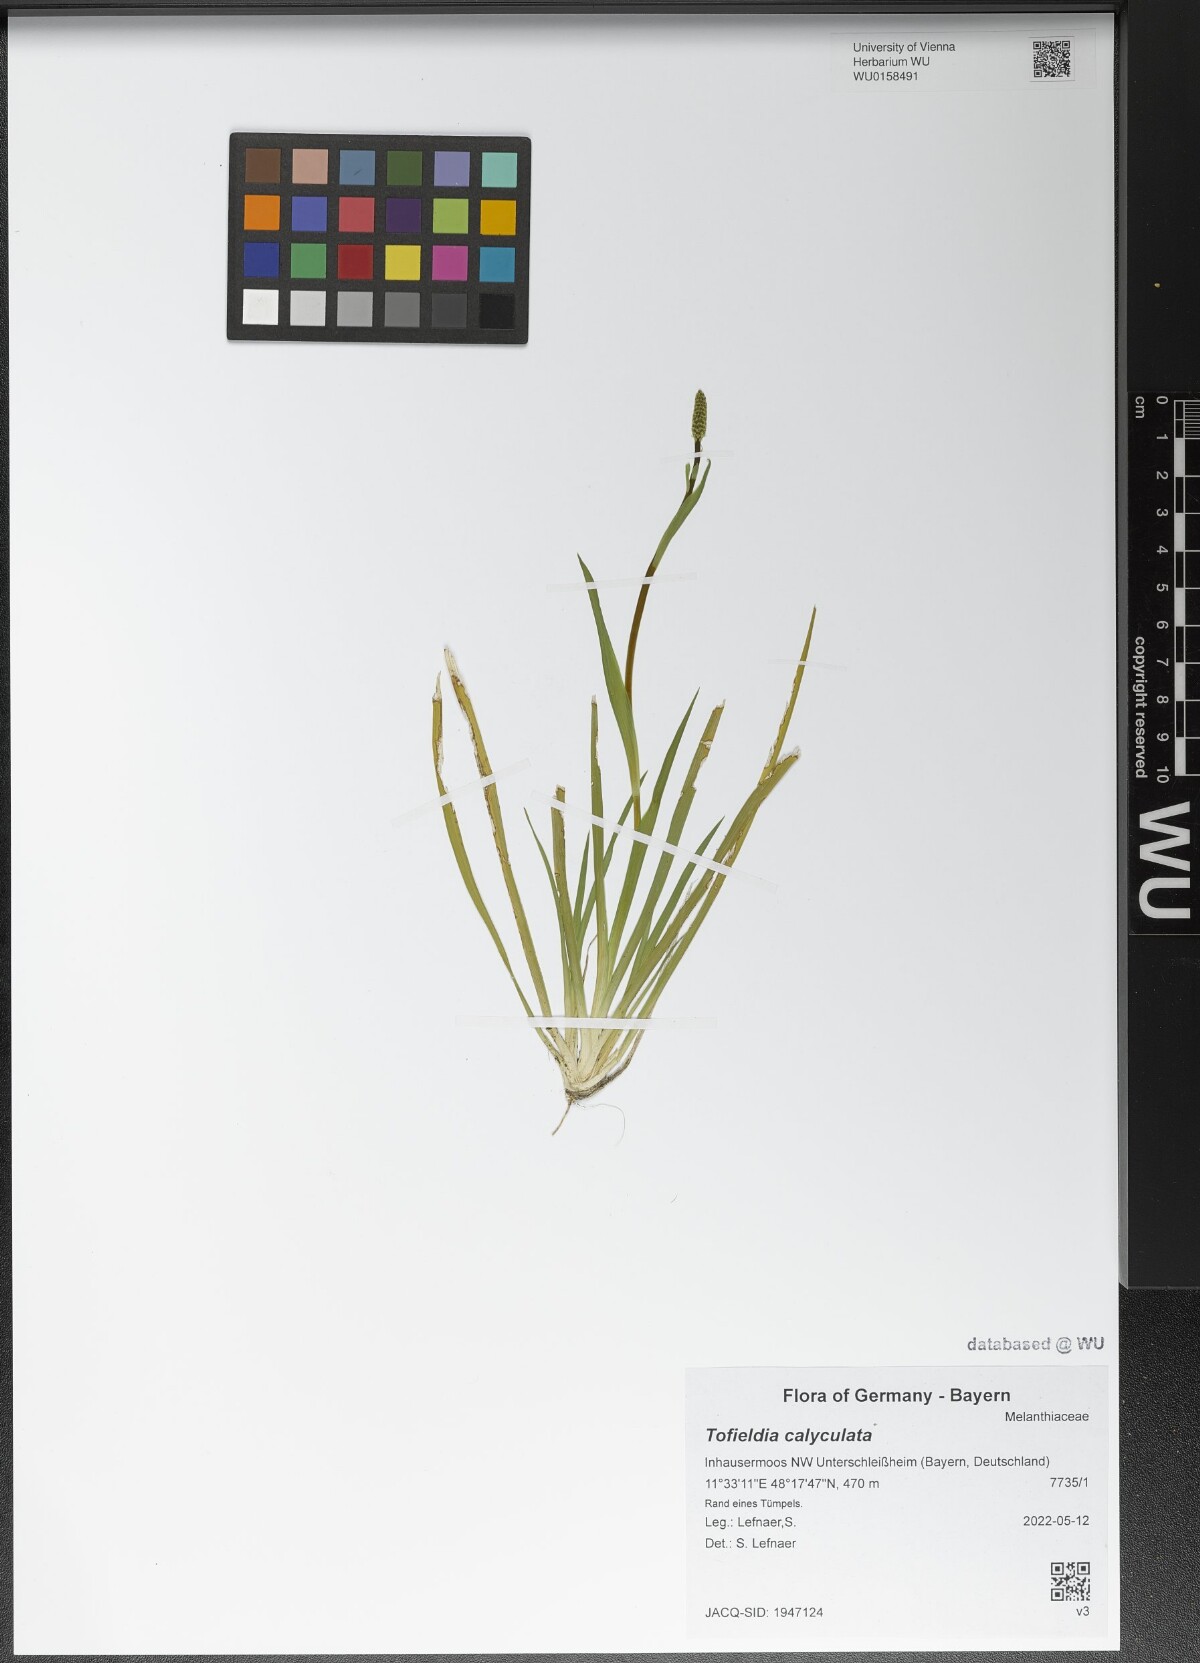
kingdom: Plantae
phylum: Tracheophyta
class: Liliopsida
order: Alismatales
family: Tofieldiaceae
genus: Tofieldia
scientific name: Tofieldia calyculata
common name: German-asphodel
